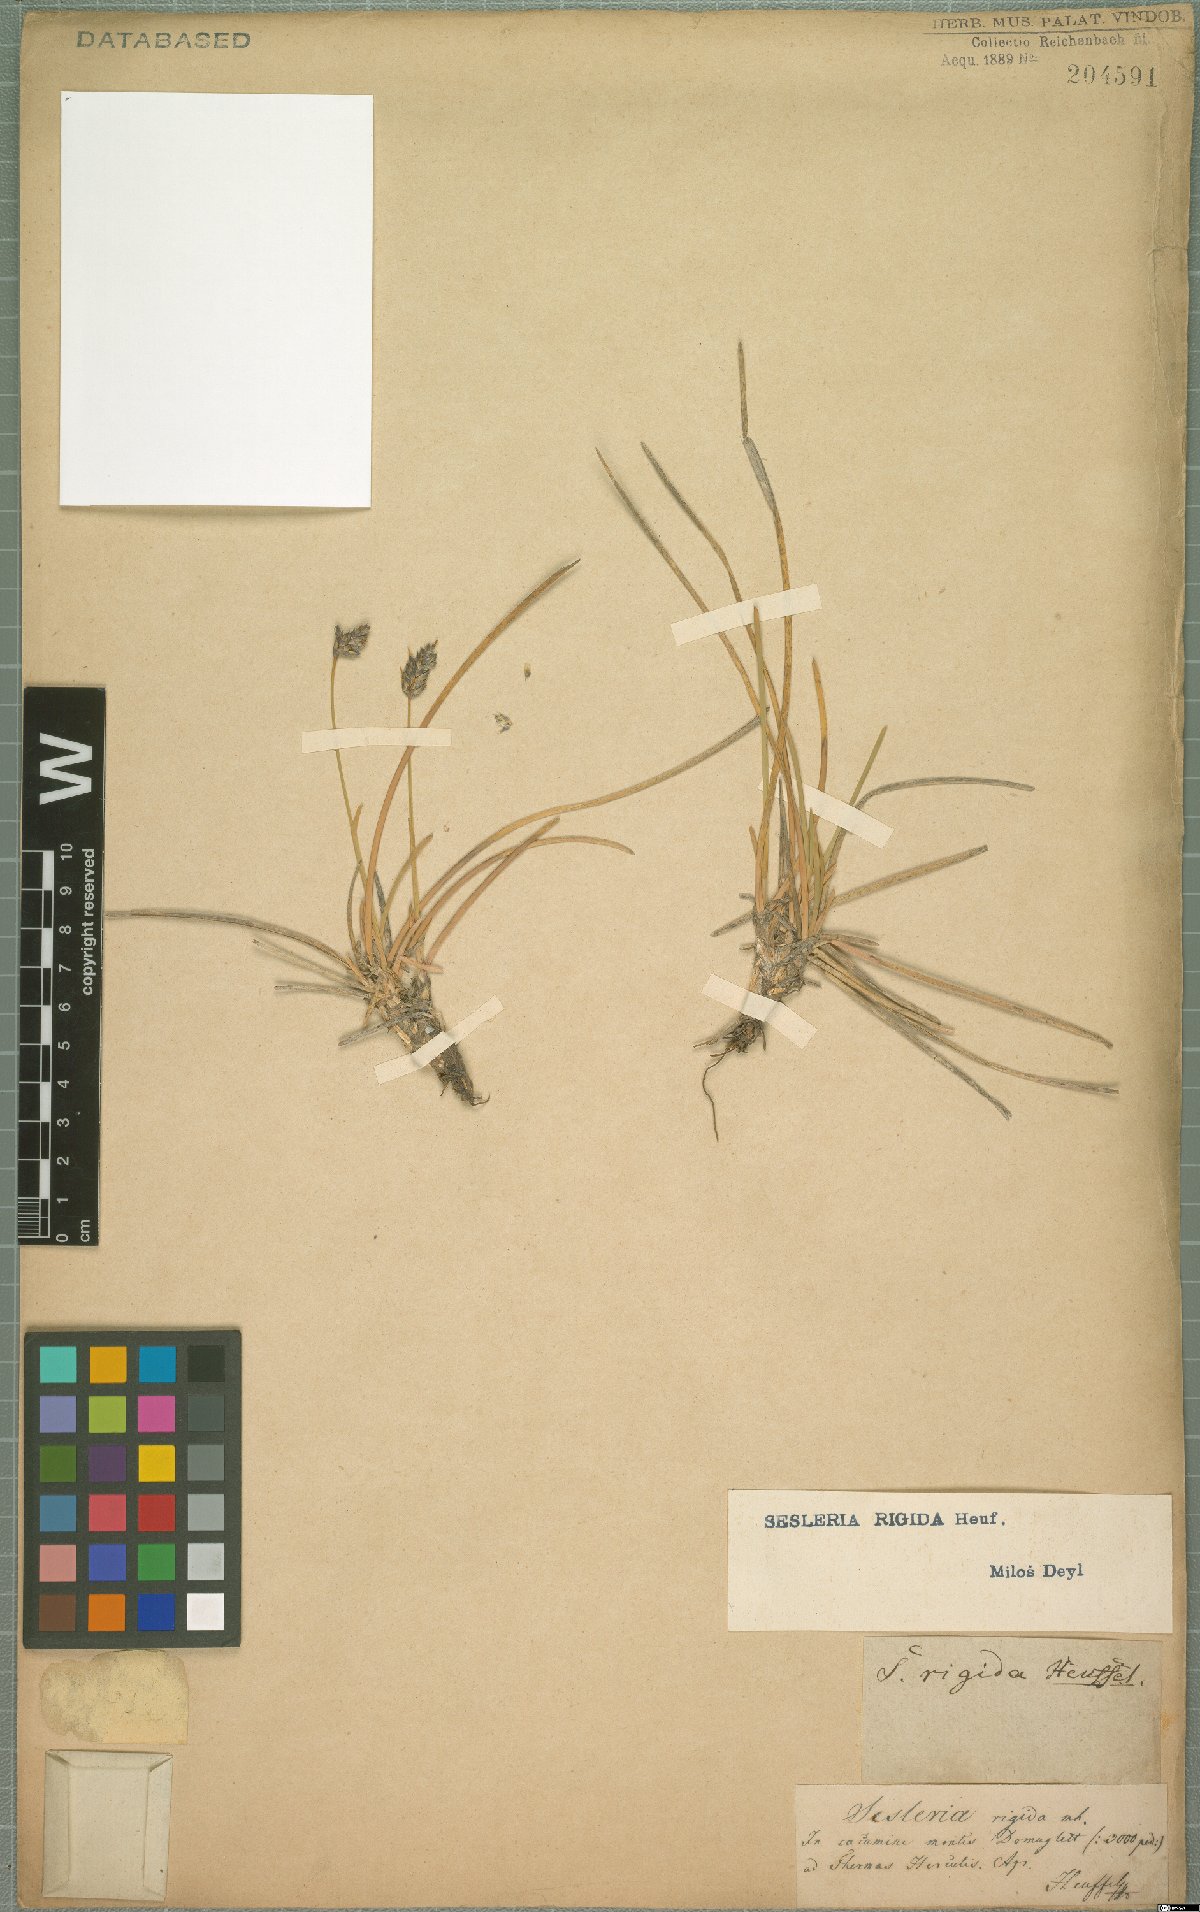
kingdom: Plantae
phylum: Tracheophyta
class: Liliopsida
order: Poales
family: Poaceae
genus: Sesleria
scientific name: Sesleria rigida
